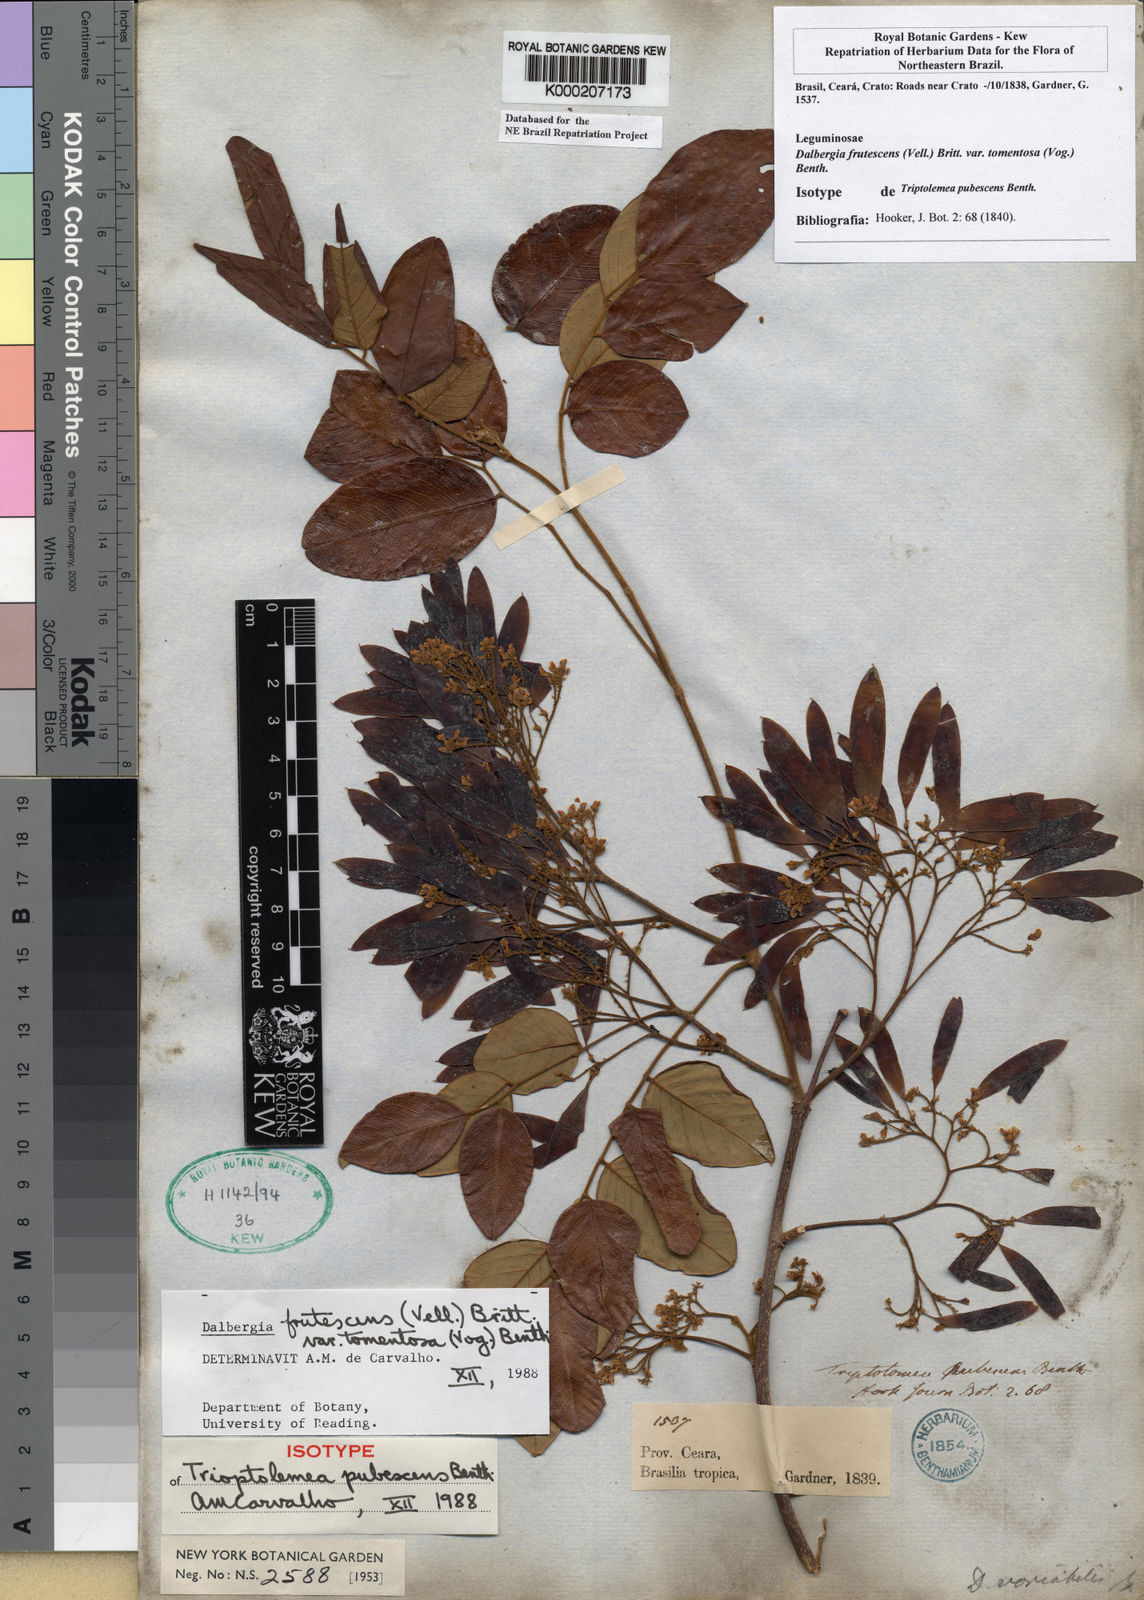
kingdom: Plantae
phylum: Tracheophyta
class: Magnoliopsida
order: Fabales
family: Fabaceae
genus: Dalbergia
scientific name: Dalbergia frutescens
